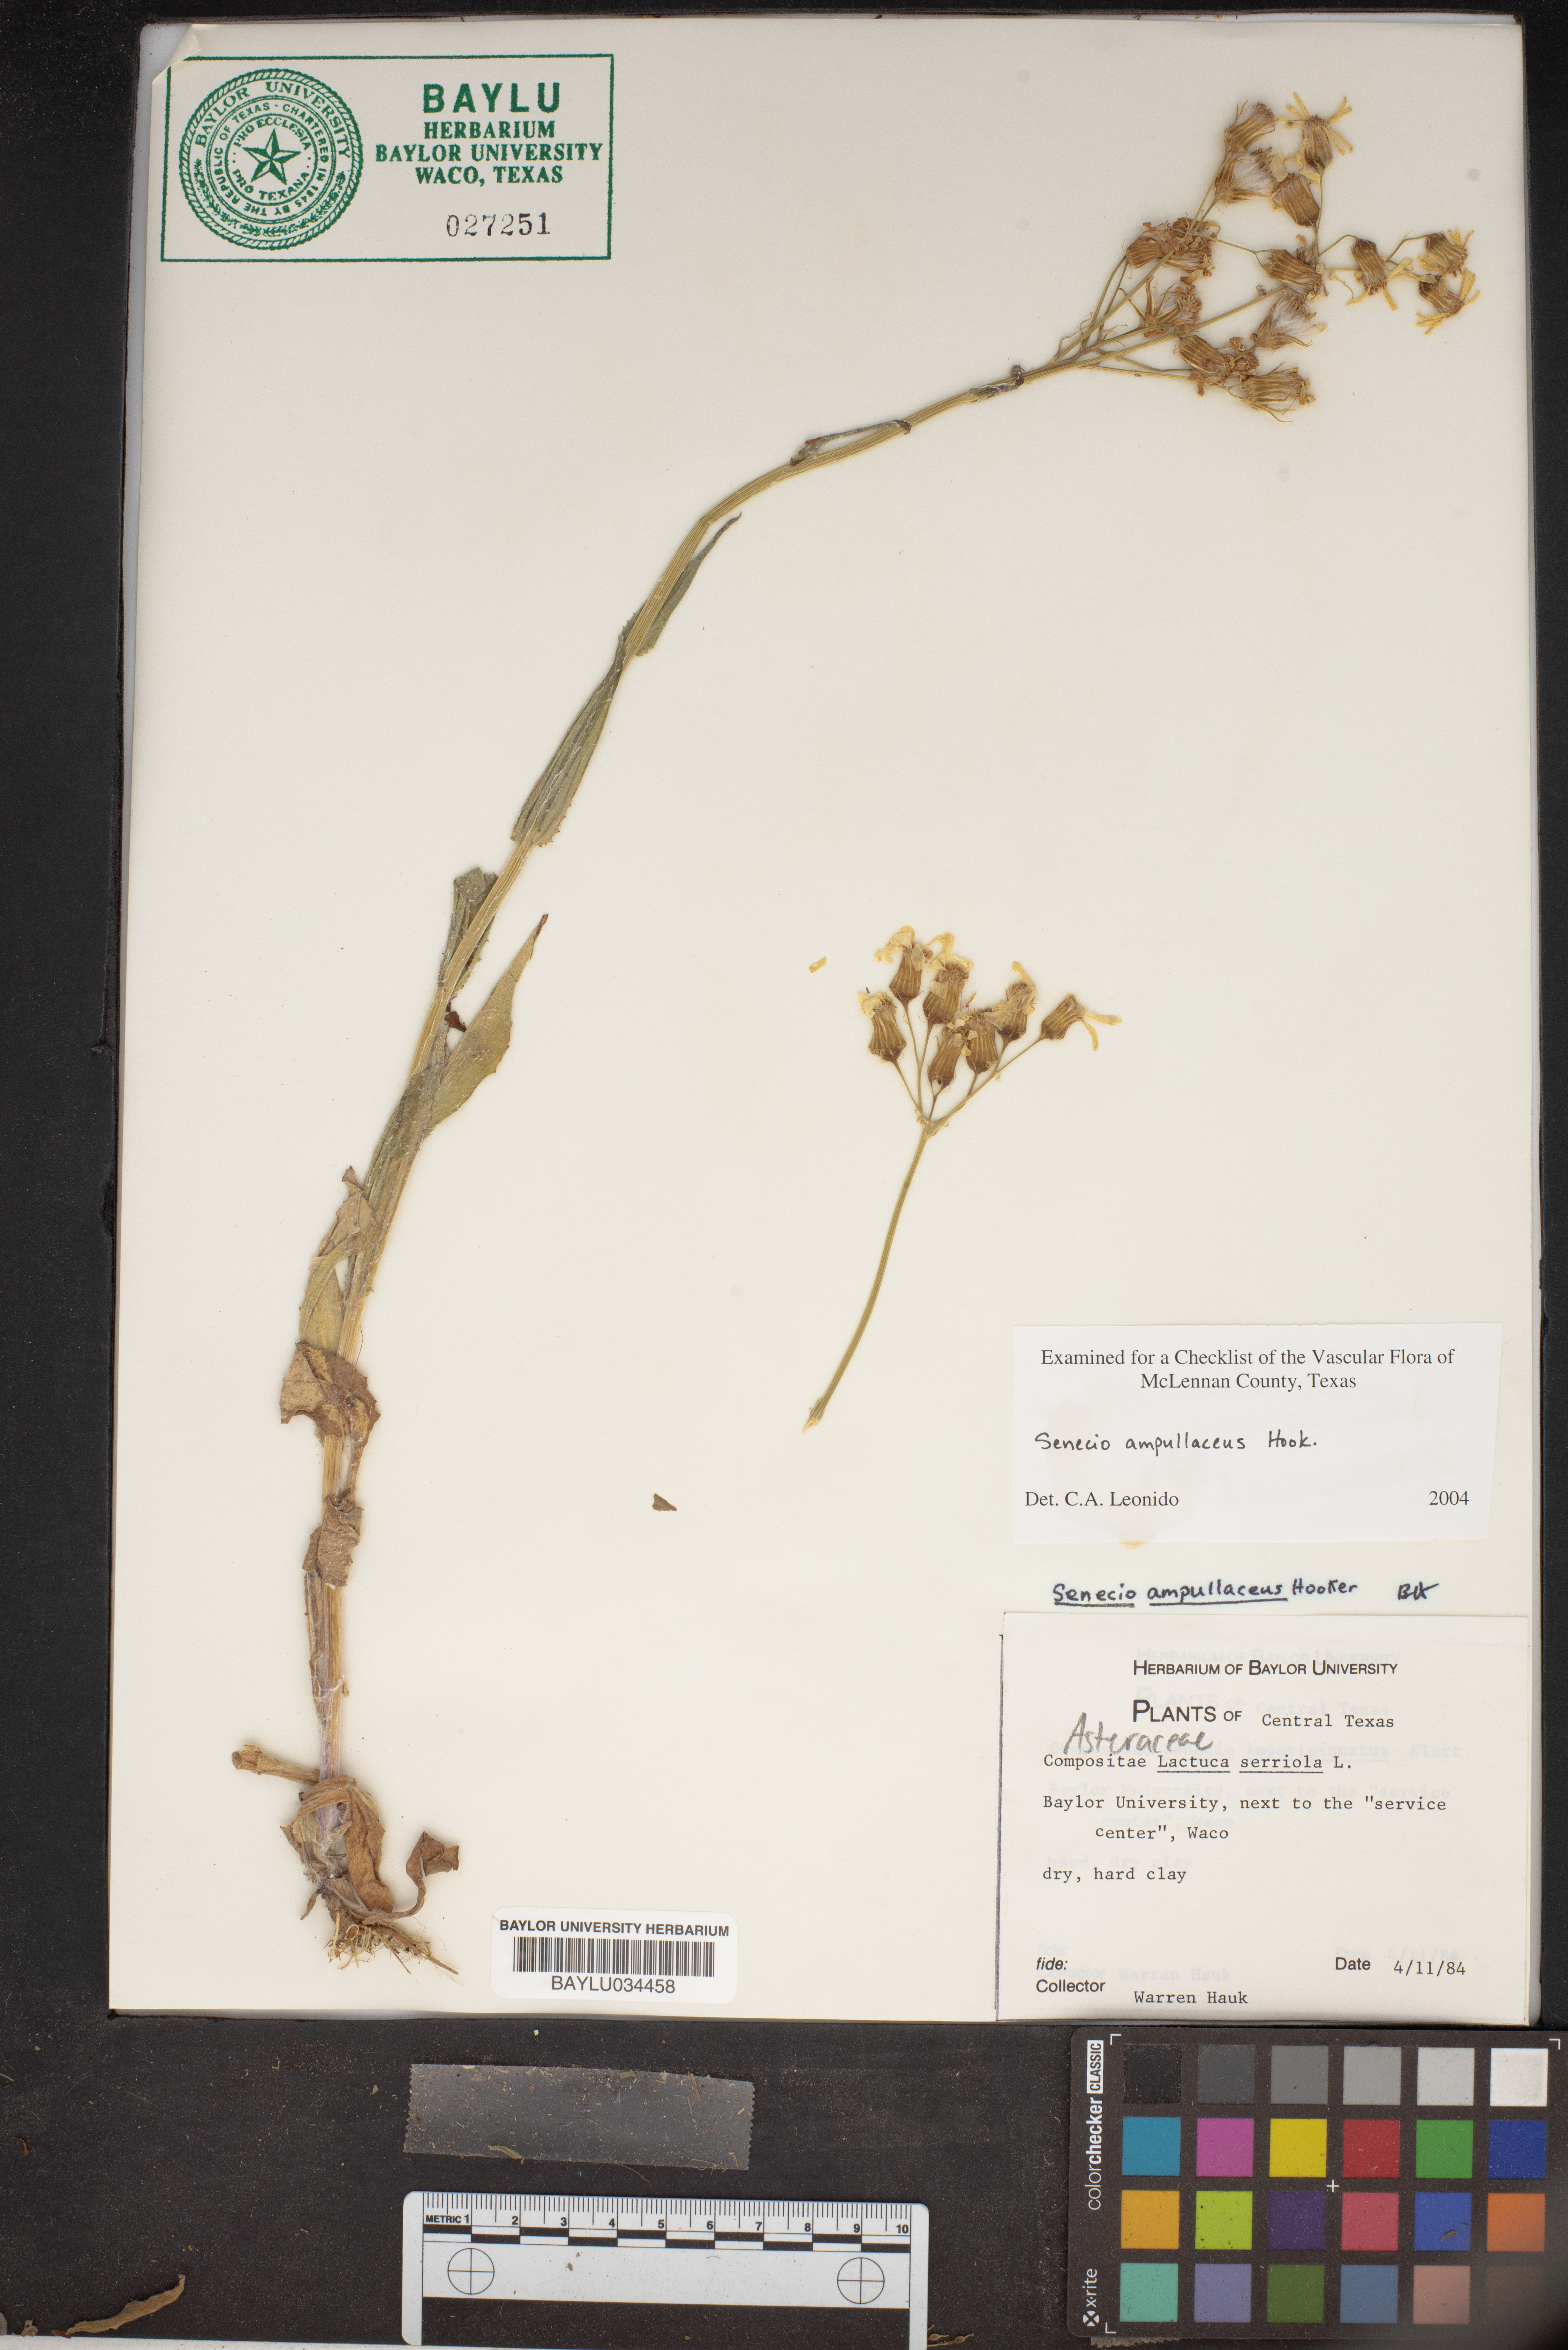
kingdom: Plantae
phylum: Tracheophyta
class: Magnoliopsida
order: Asterales
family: Asteraceae
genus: Lactuca
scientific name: Lactuca serriola
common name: Prickly lettuce
